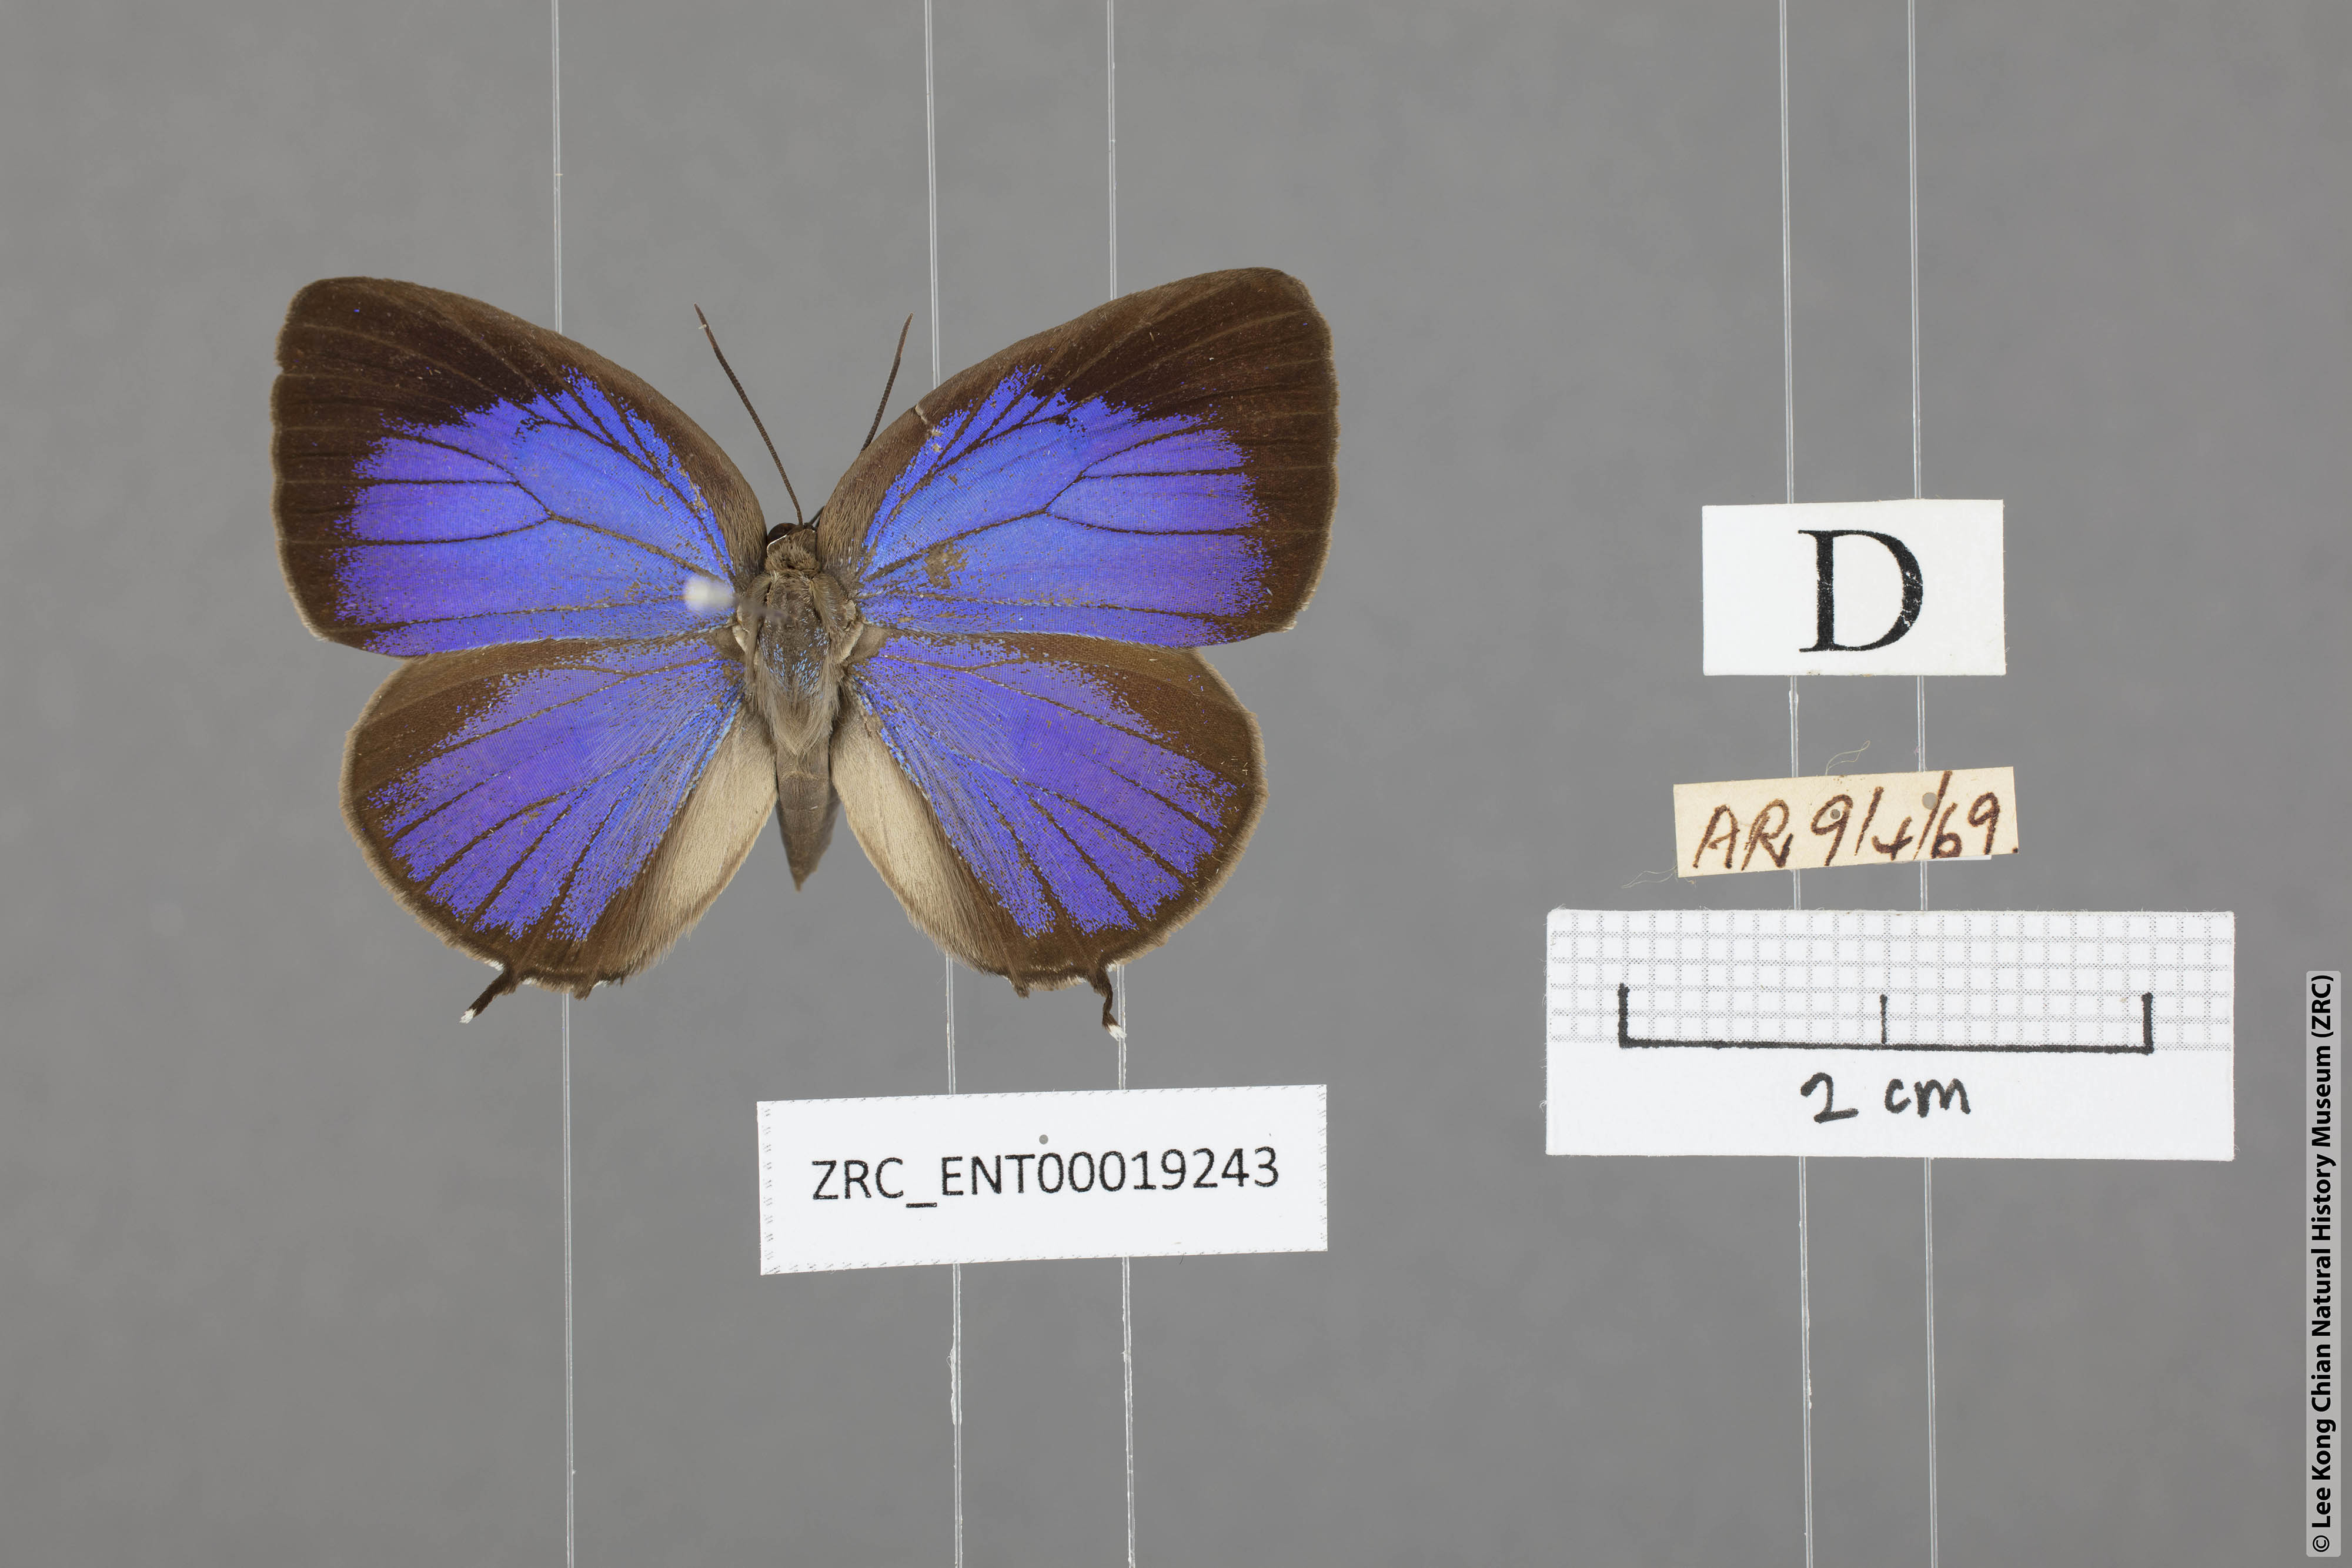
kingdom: Animalia
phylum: Arthropoda
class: Insecta
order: Lepidoptera
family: Lycaenidae
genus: Arhopala
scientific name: Arhopala atosia
